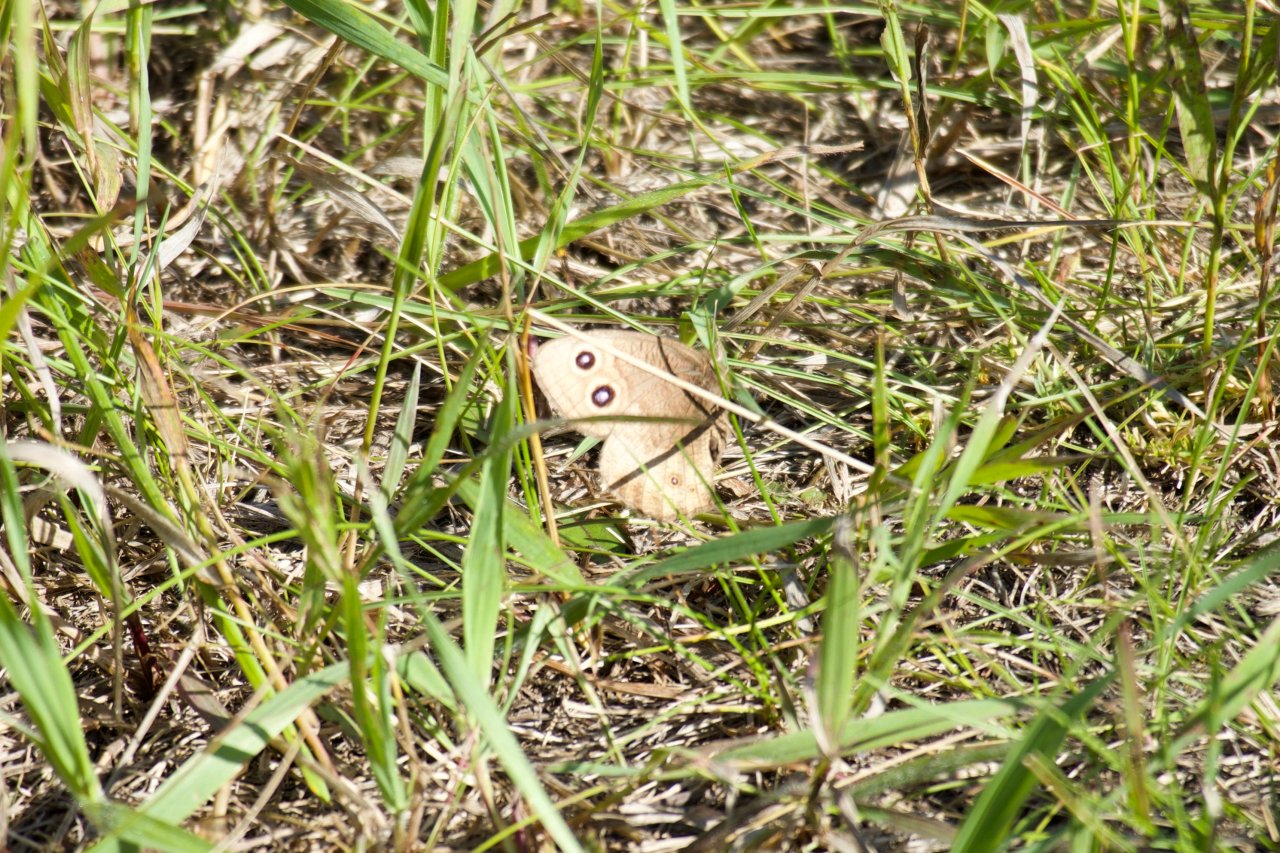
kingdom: Animalia
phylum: Arthropoda
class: Insecta
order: Lepidoptera
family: Nymphalidae
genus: Cercyonis
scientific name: Cercyonis pegala
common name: Common Wood-Nymph
